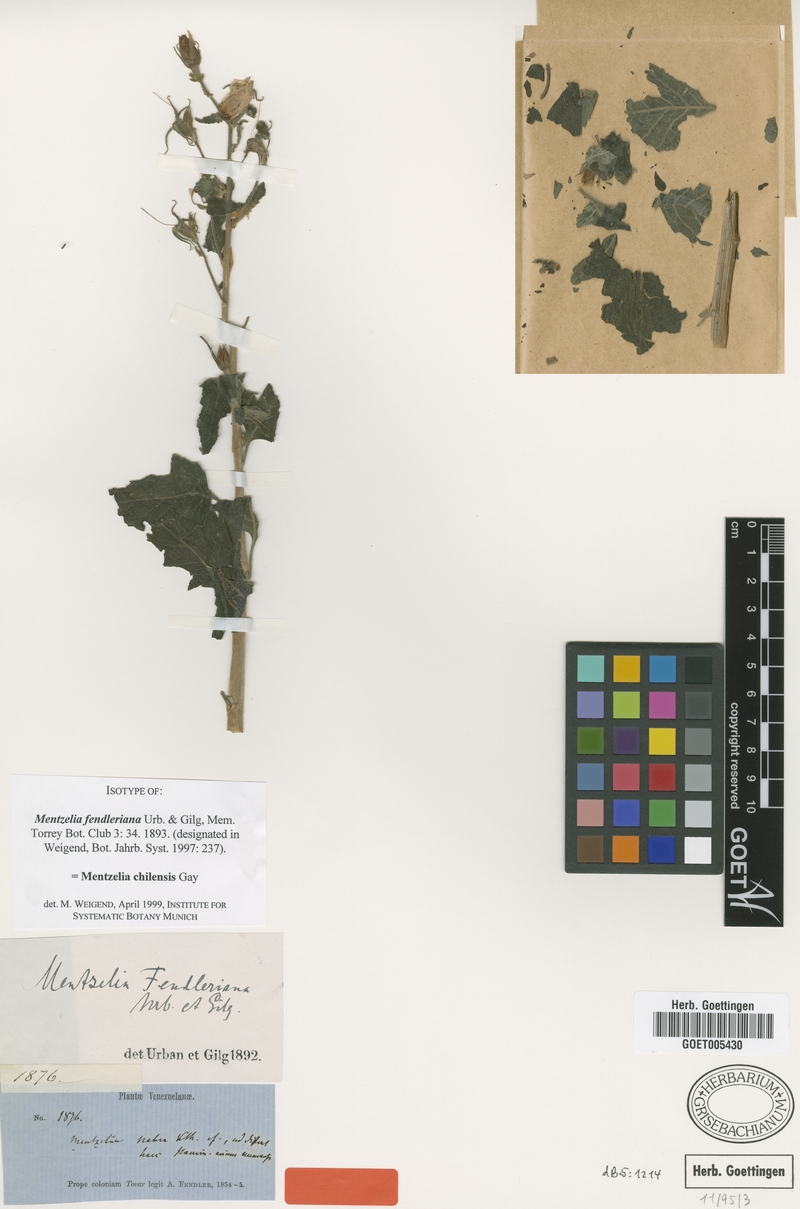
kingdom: Plantae
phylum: Tracheophyta
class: Magnoliopsida
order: Cornales
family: Loasaceae
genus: Mentzelia
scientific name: Mentzelia scabra
